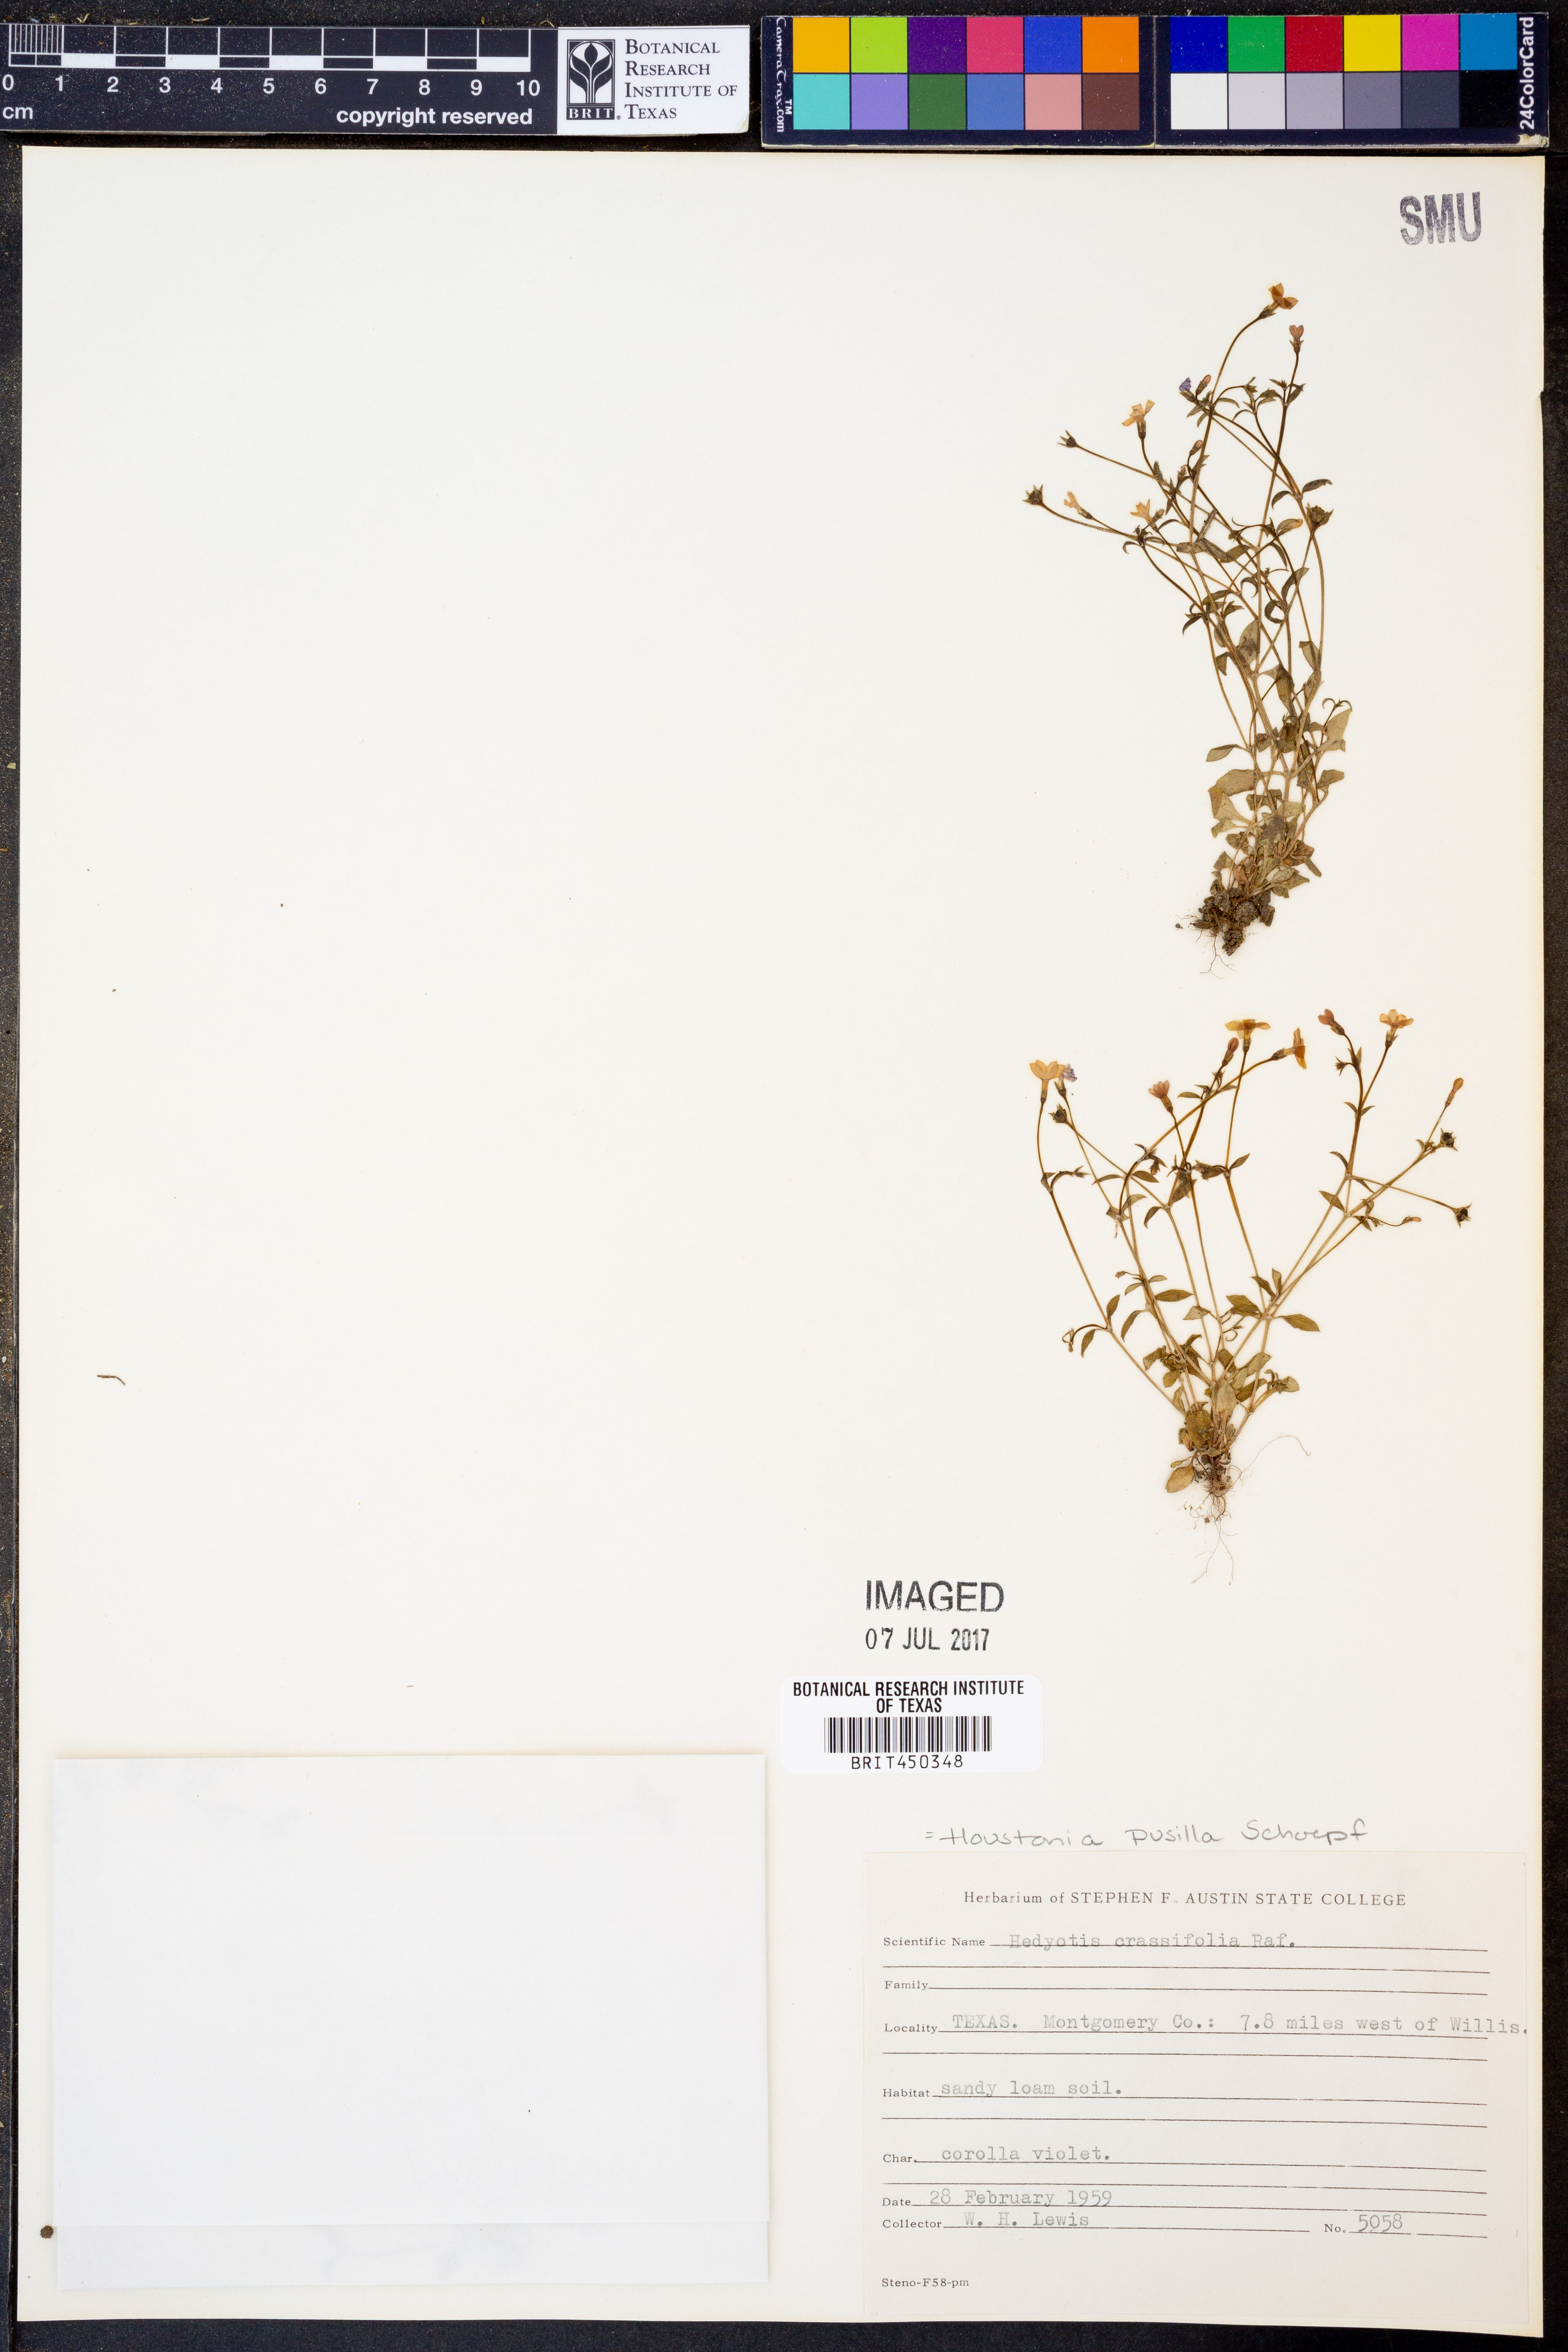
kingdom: Plantae
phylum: Tracheophyta
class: Magnoliopsida
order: Gentianales
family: Rubiaceae
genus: Houstonia
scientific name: Houstonia pusilla
